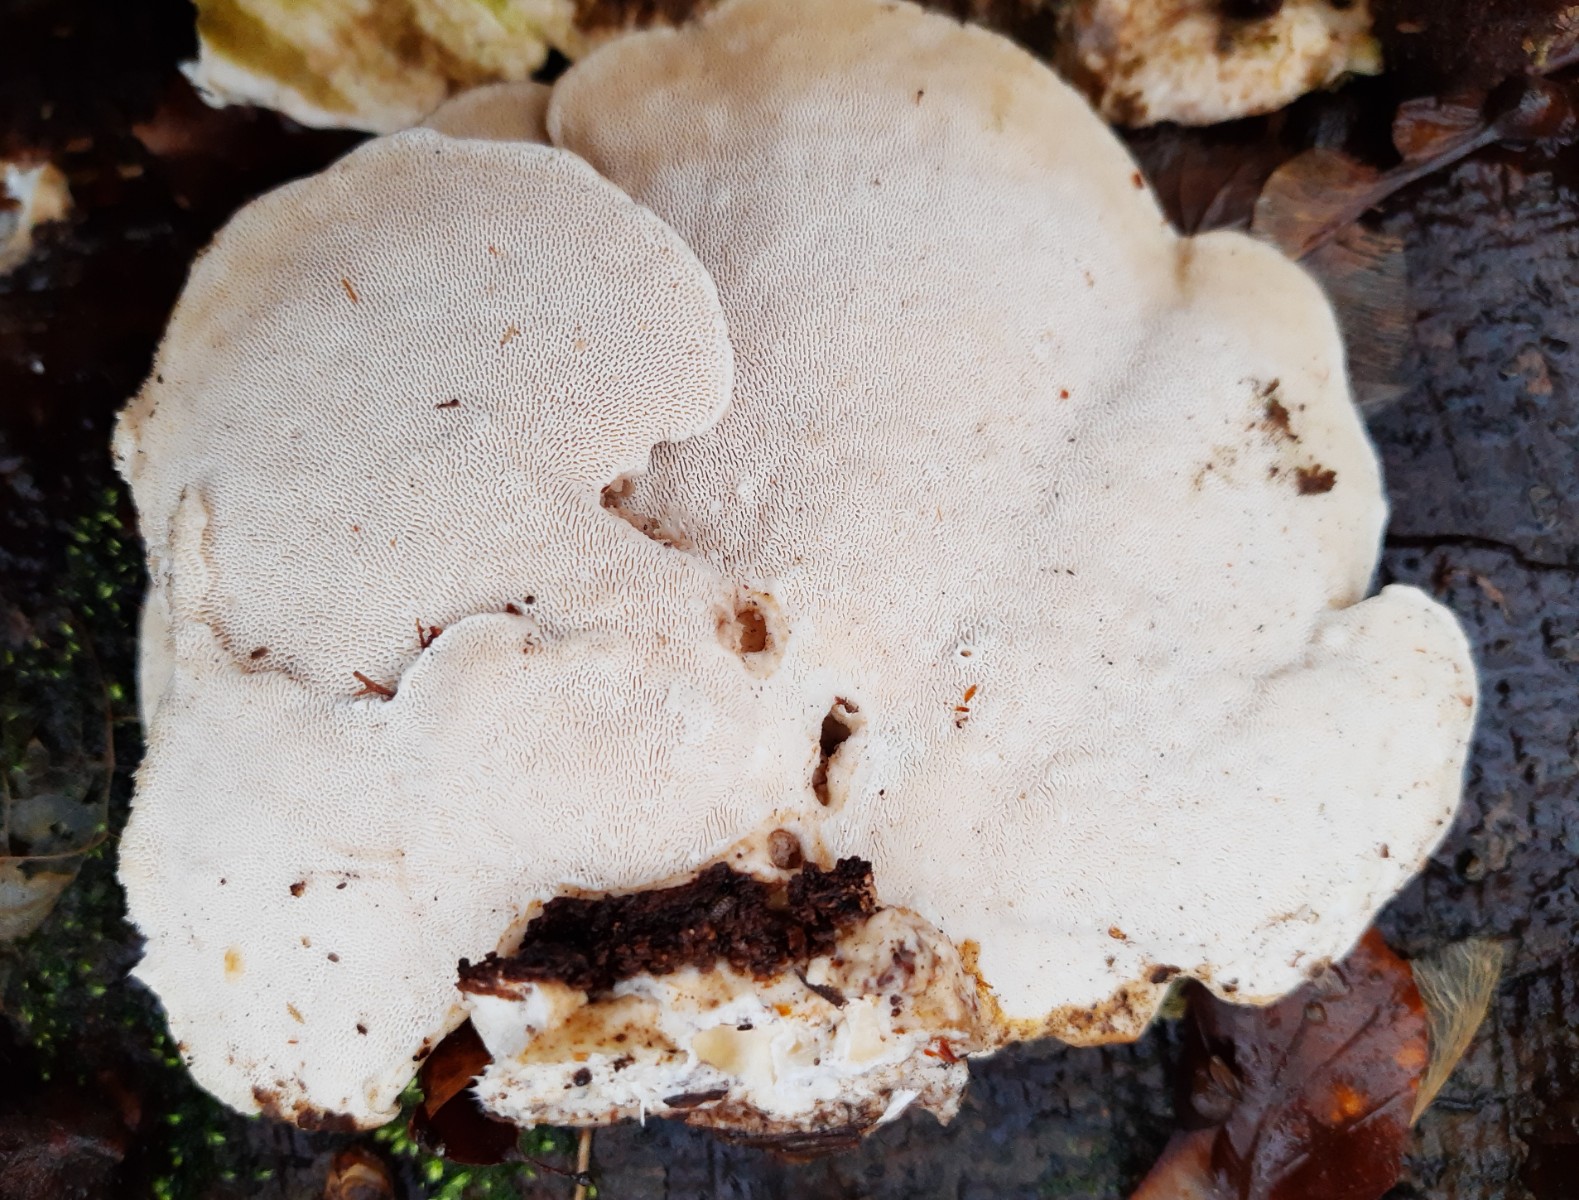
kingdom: Fungi
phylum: Basidiomycota
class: Agaricomycetes
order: Polyporales
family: Polyporaceae
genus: Trametes
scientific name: Trametes gibbosa
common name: puklet læderporesvamp
